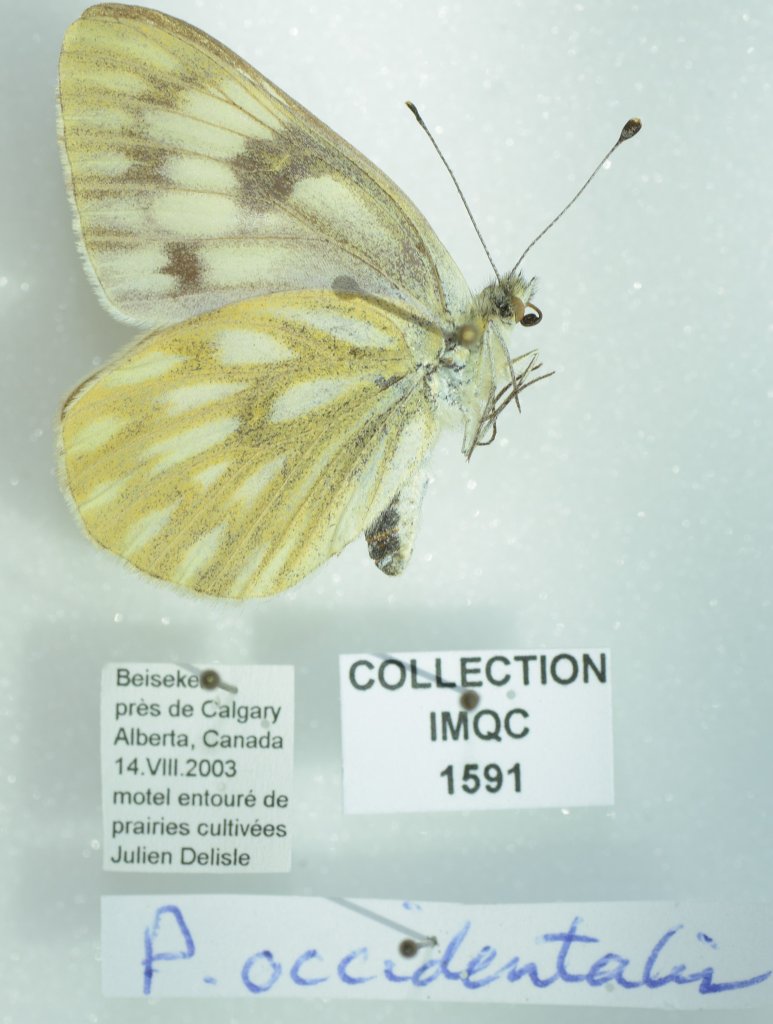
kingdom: Animalia
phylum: Arthropoda
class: Insecta
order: Lepidoptera
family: Pieridae
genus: Pontia
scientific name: Pontia occidentalis
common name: Western White
